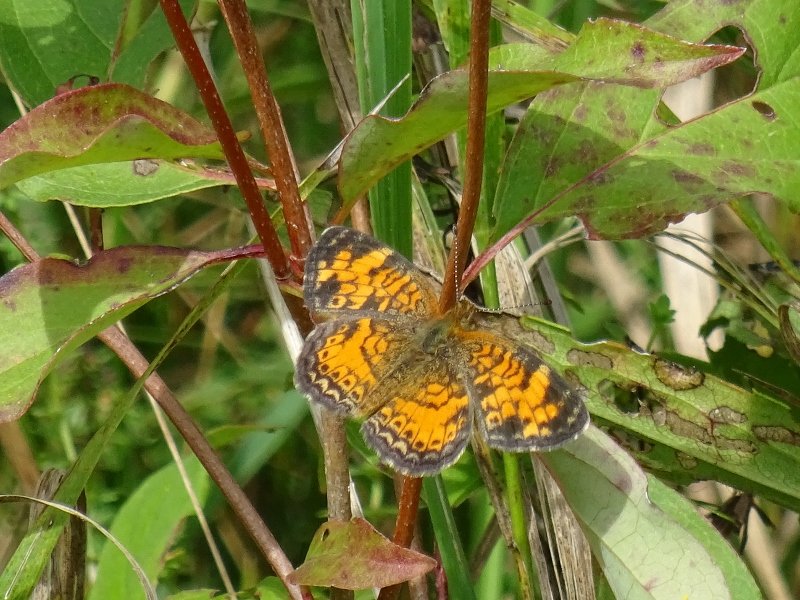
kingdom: Animalia
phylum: Arthropoda
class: Insecta
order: Lepidoptera
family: Nymphalidae
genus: Phyciodes
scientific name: Phyciodes tharos
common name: Pearl Crescent
